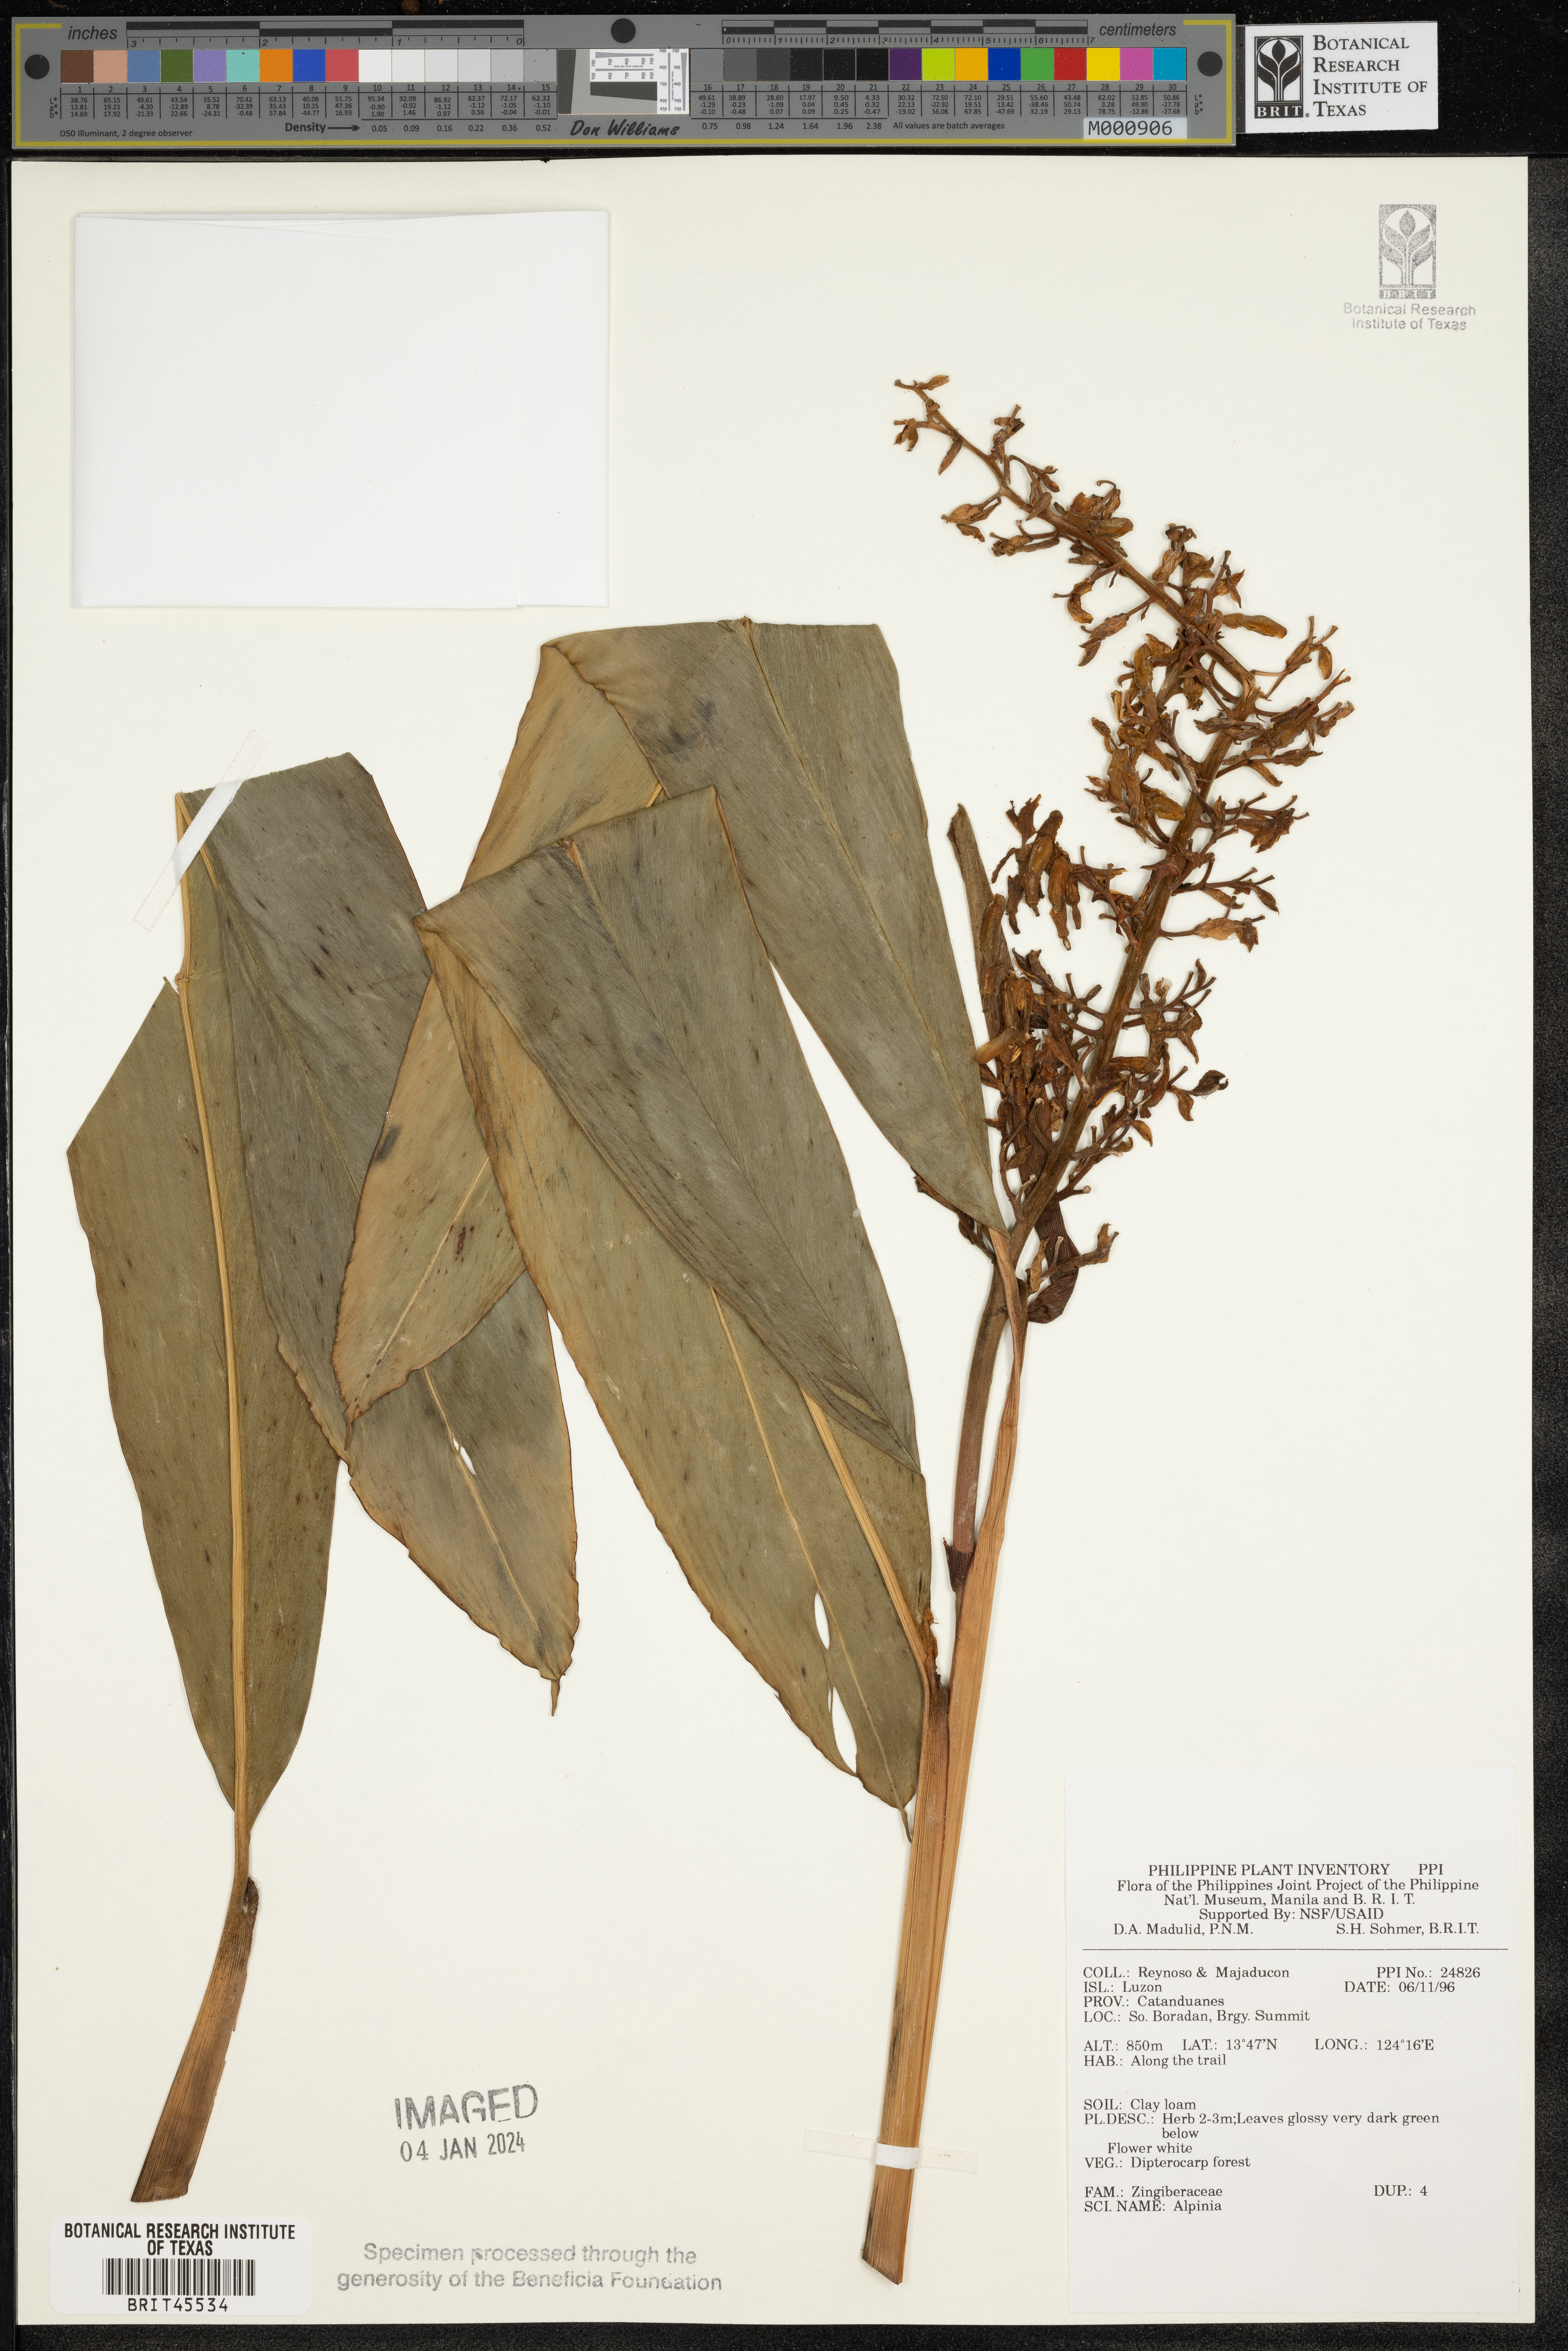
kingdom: Plantae
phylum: Tracheophyta
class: Liliopsida
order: Zingiberales
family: Zingiberaceae
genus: Alpinia
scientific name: Alpinia
